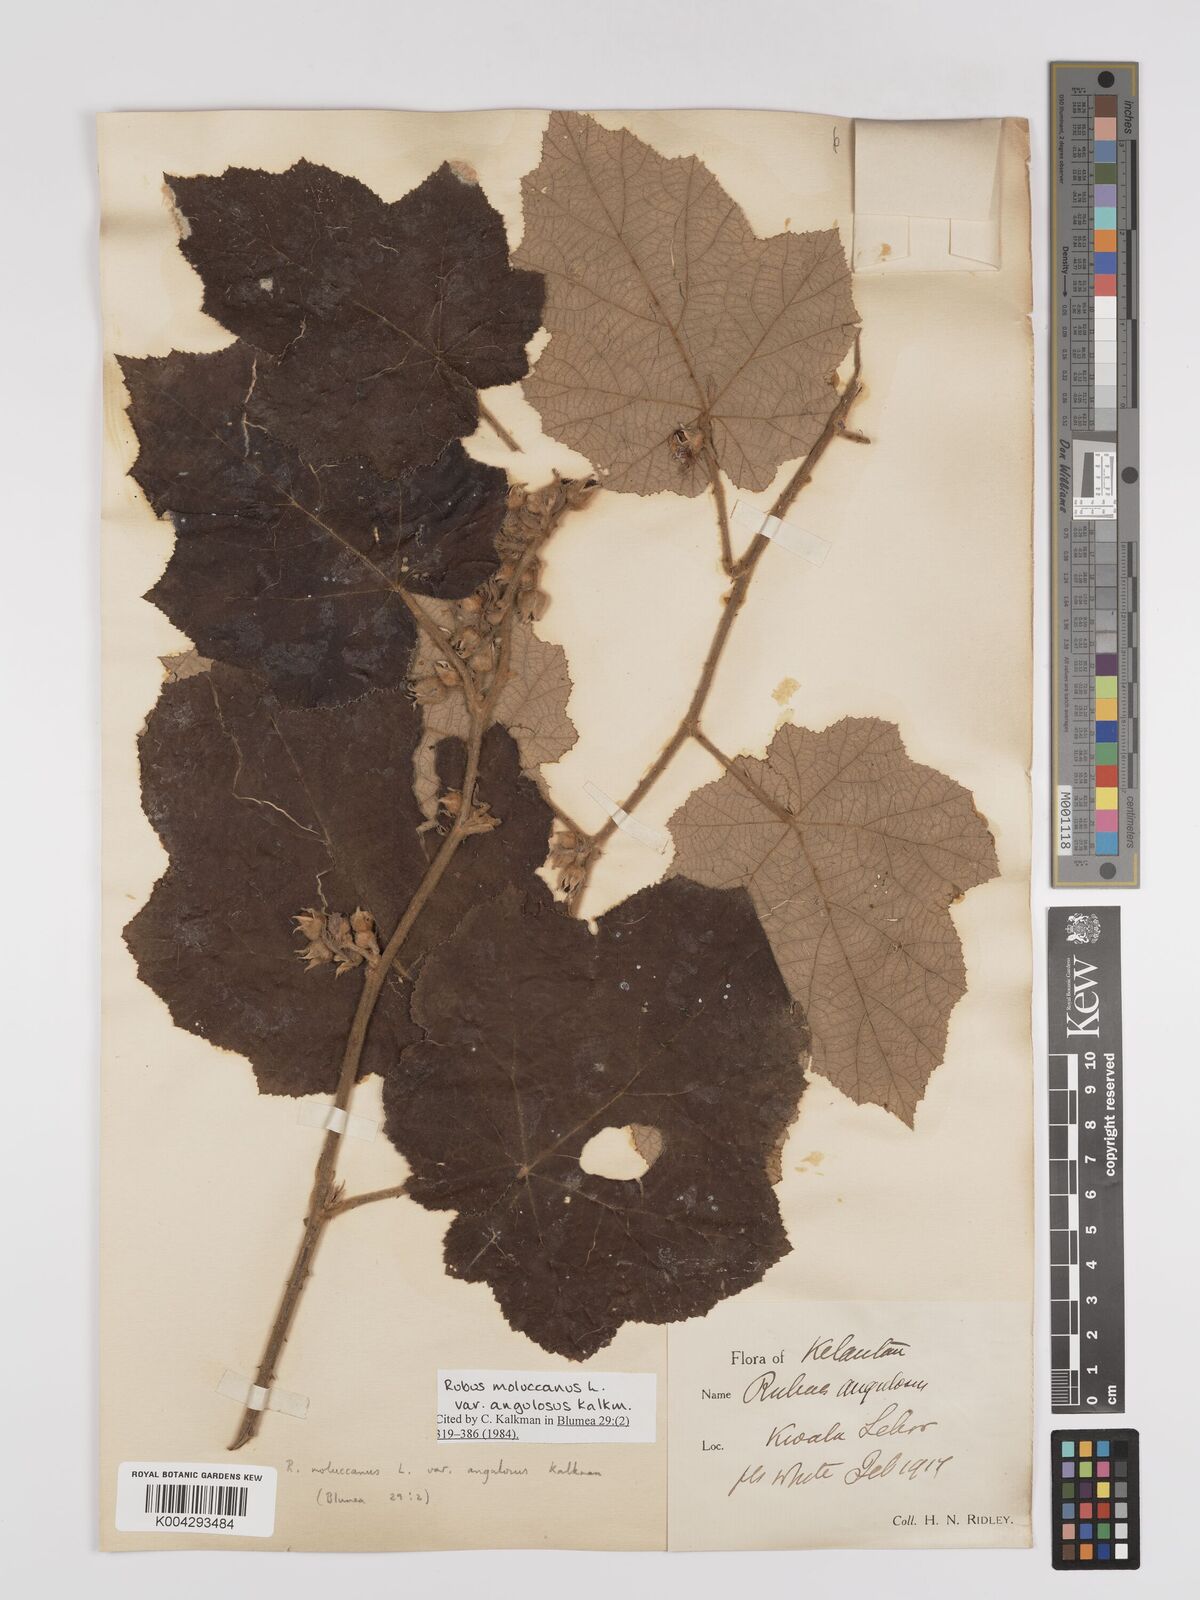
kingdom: Plantae
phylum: Tracheophyta
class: Magnoliopsida
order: Rosales
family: Rosaceae
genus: Rubus
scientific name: Rubus moluccanus
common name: Wild raspberry
